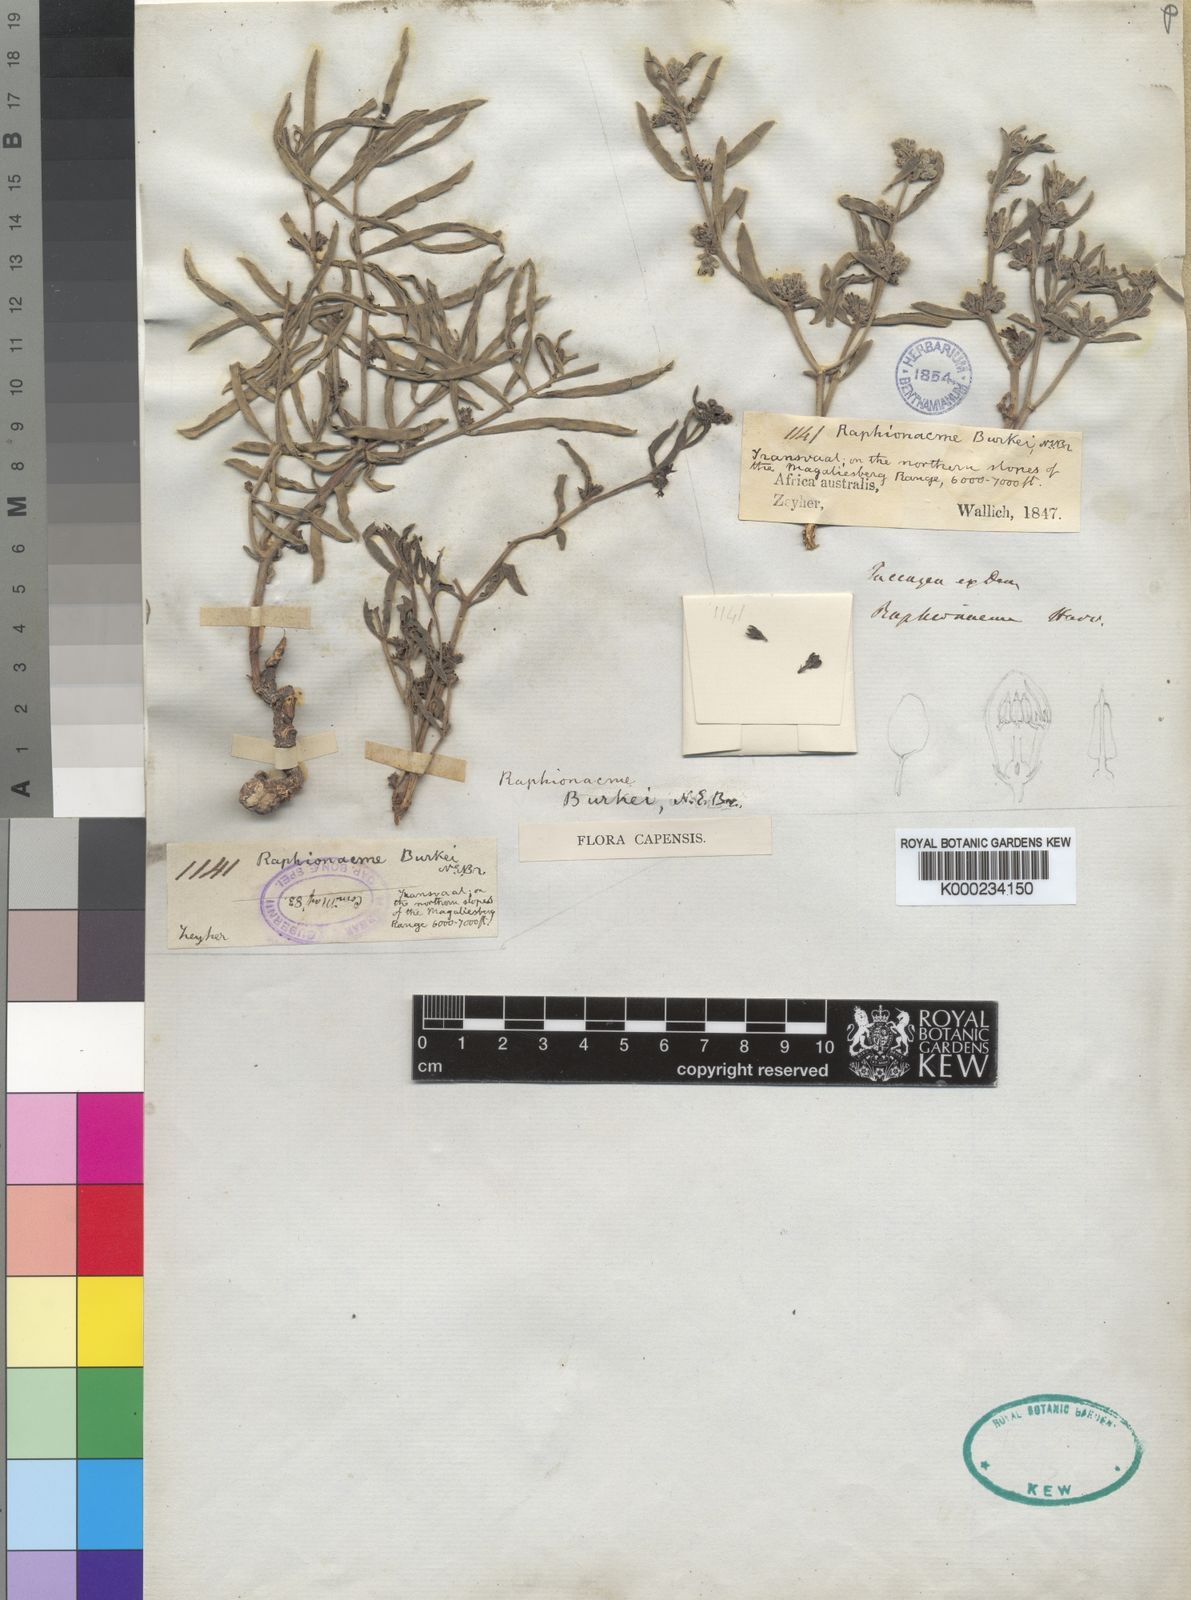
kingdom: Plantae
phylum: Tracheophyta
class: Magnoliopsida
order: Gentianales
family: Apocynaceae
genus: Raphionacme
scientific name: Raphionacme velutina
